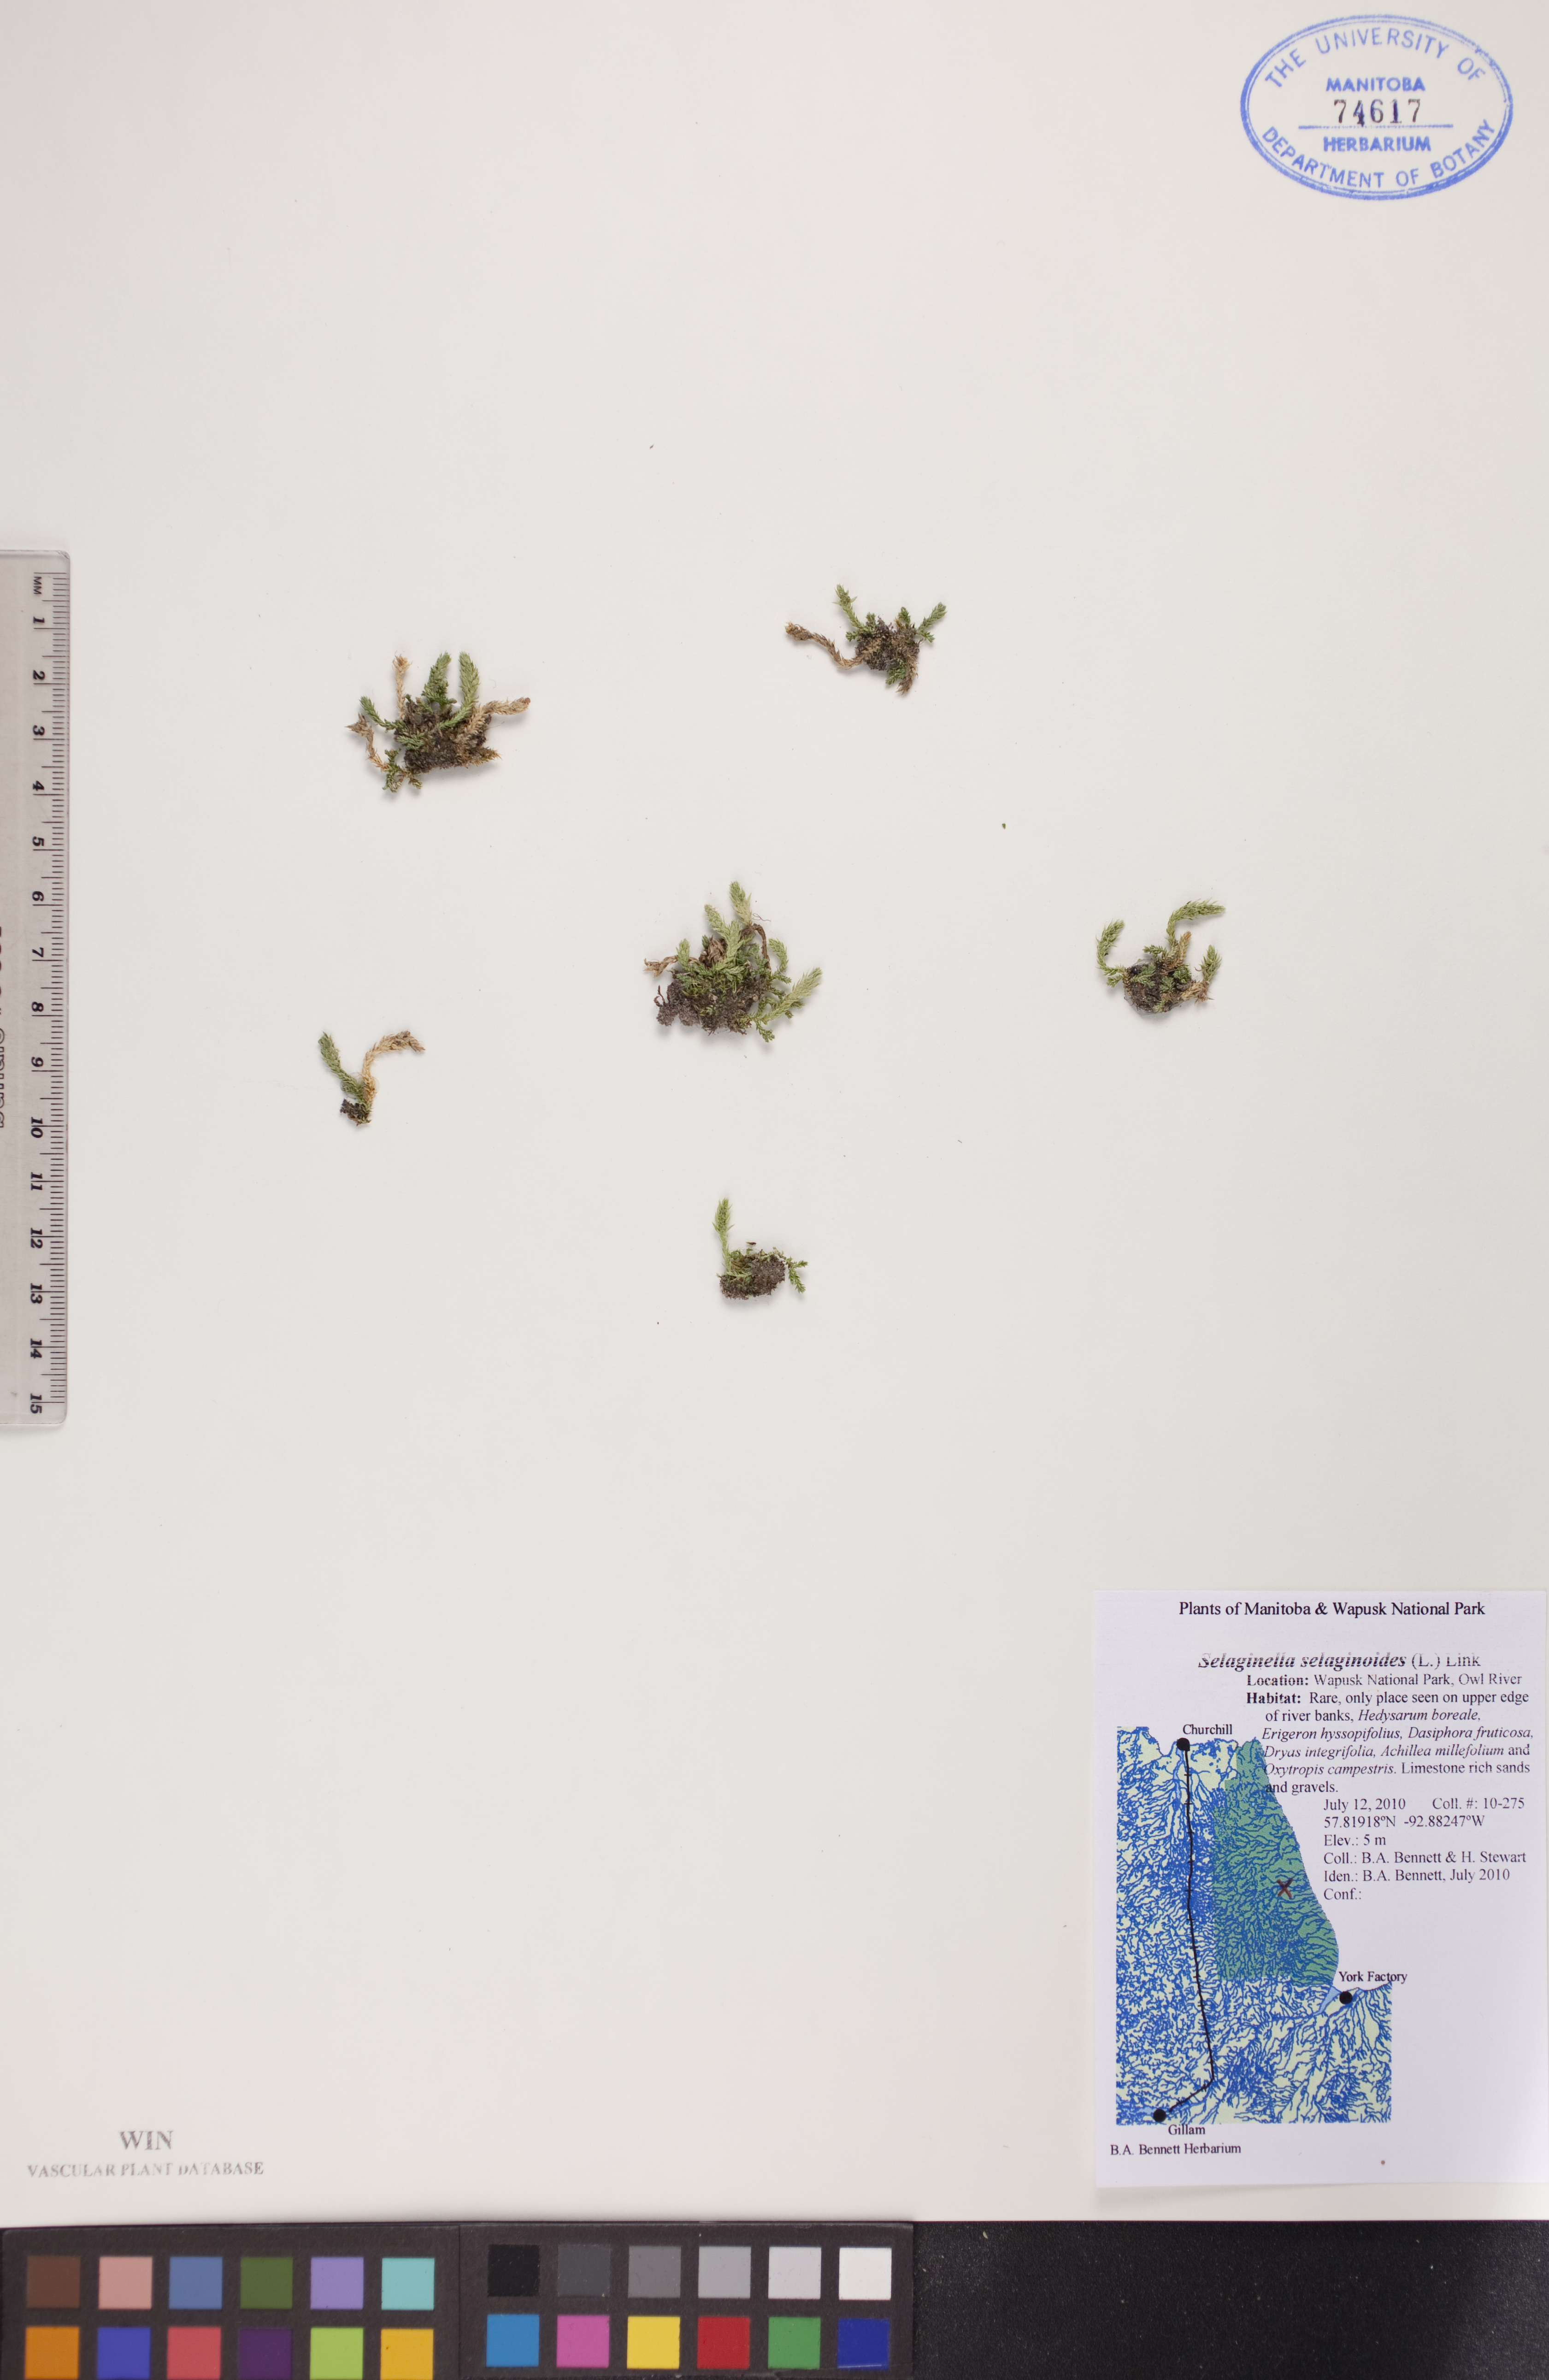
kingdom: Plantae
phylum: Tracheophyta
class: Lycopodiopsida
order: Selaginellales
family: Selaginellaceae
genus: Selaginella
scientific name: Selaginella selaginoides
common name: Prickly mountain-moss
